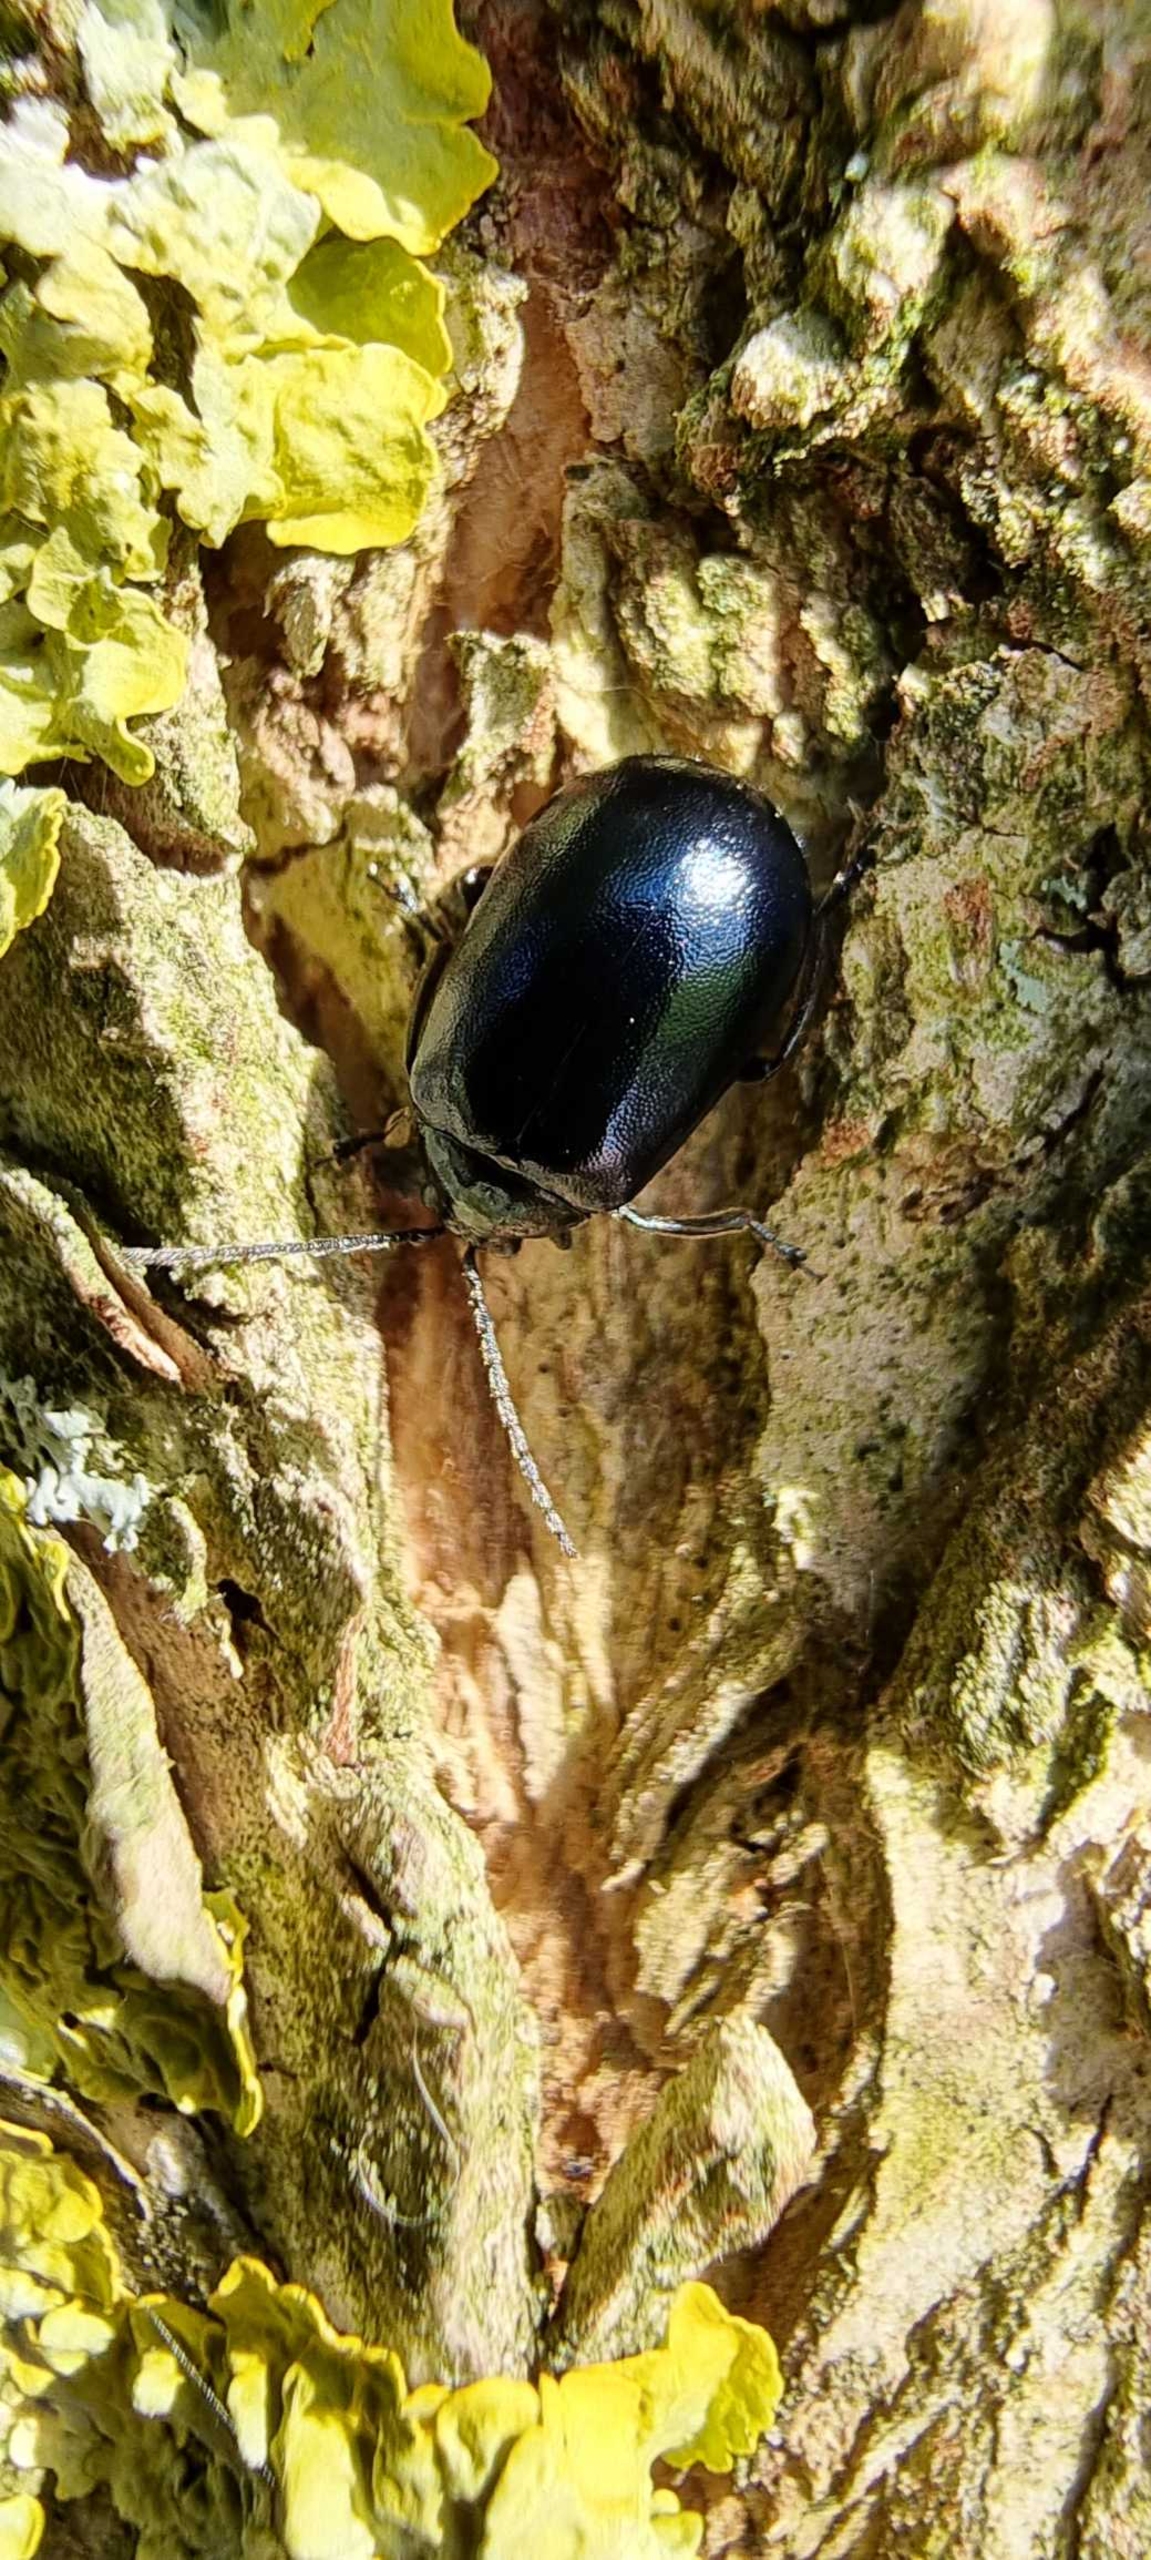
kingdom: Animalia
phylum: Arthropoda
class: Insecta
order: Coleoptera
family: Chrysomelidae
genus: Agelastica
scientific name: Agelastica alni
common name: Ellebladbille
